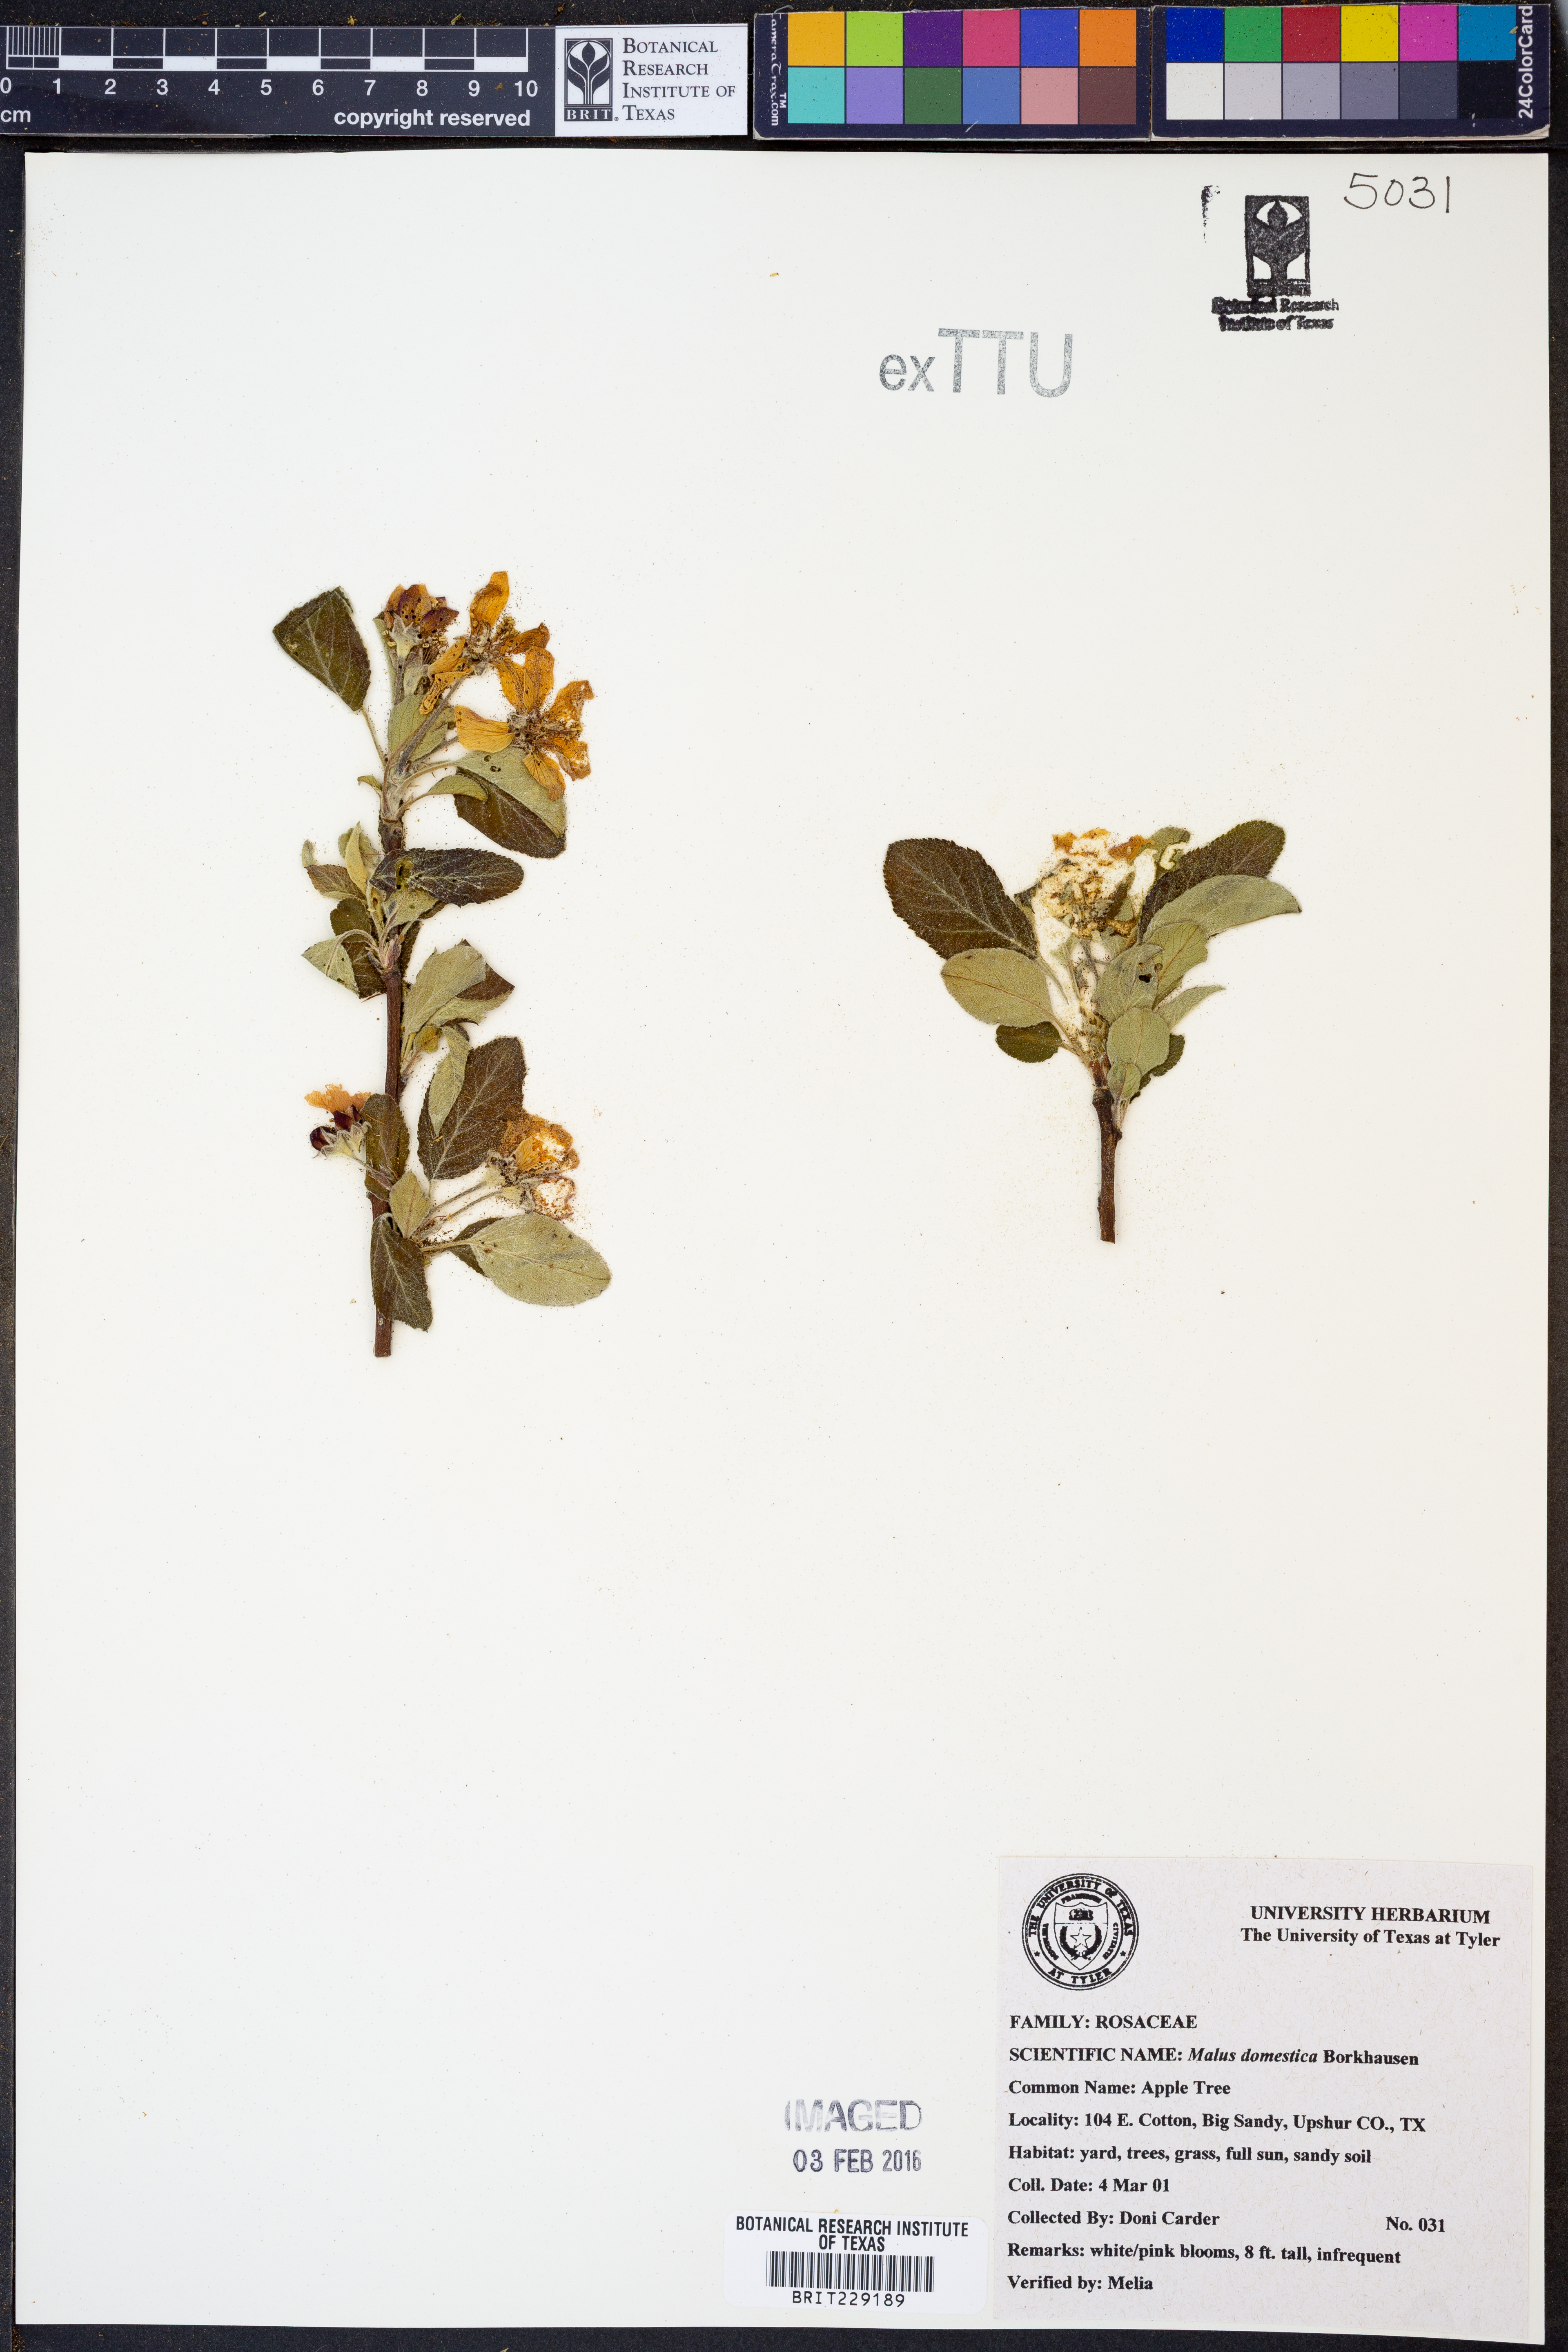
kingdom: Plantae
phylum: Tracheophyta
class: Magnoliopsida
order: Rosales
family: Rosaceae
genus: Malus
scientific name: Malus domestica
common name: Apple
